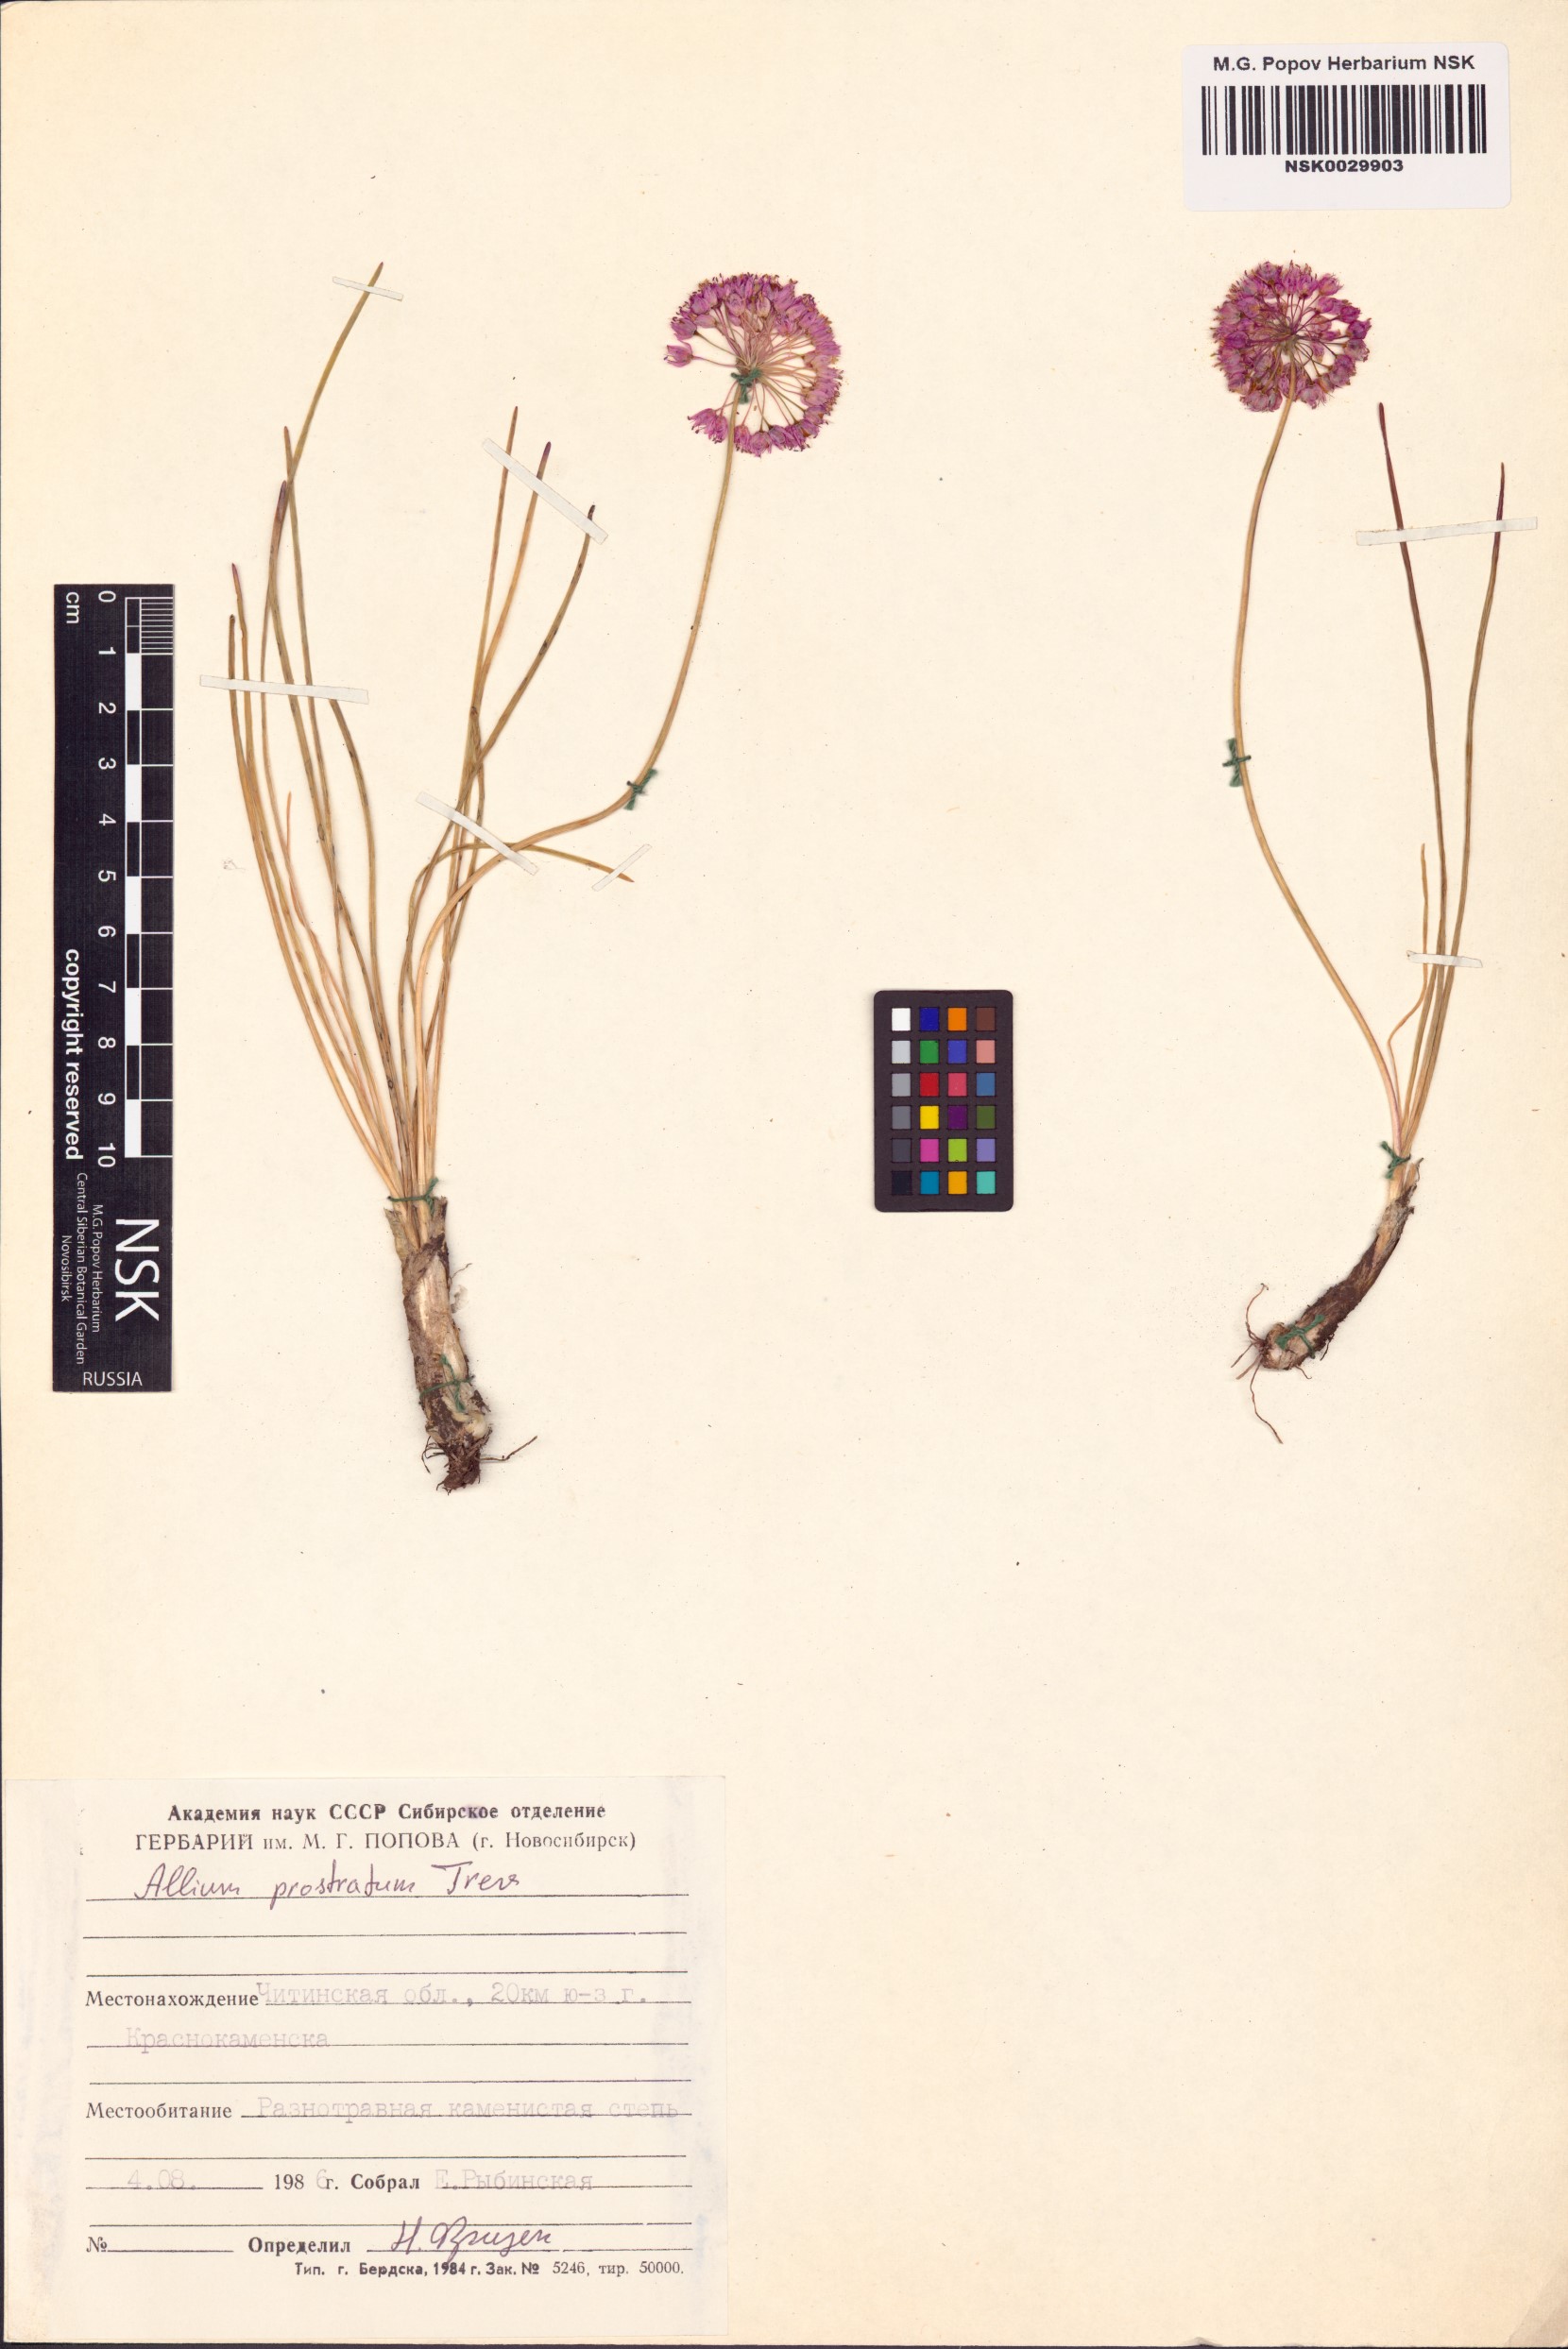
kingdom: Plantae
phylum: Tracheophyta
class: Liliopsida
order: Asparagales
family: Amaryllidaceae
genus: Allium
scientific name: Allium prostratum
